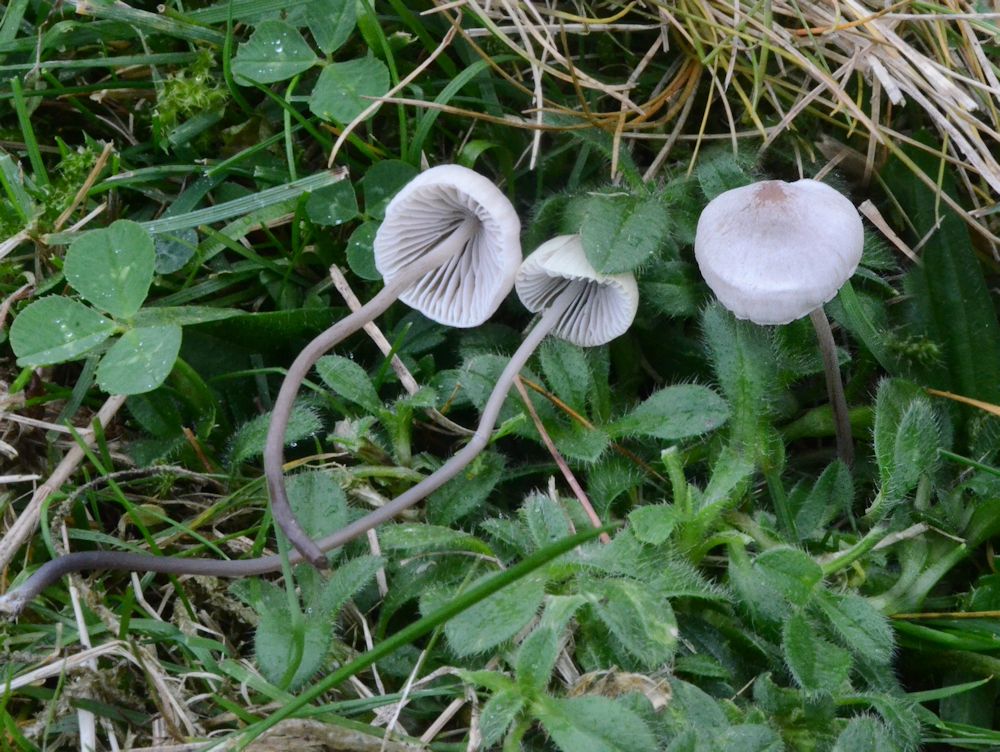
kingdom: Fungi
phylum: Basidiomycota
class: Agaricomycetes
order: Agaricales
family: Mycenaceae
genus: Mycena
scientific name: Mycena filopes
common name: jod-huesvamp
